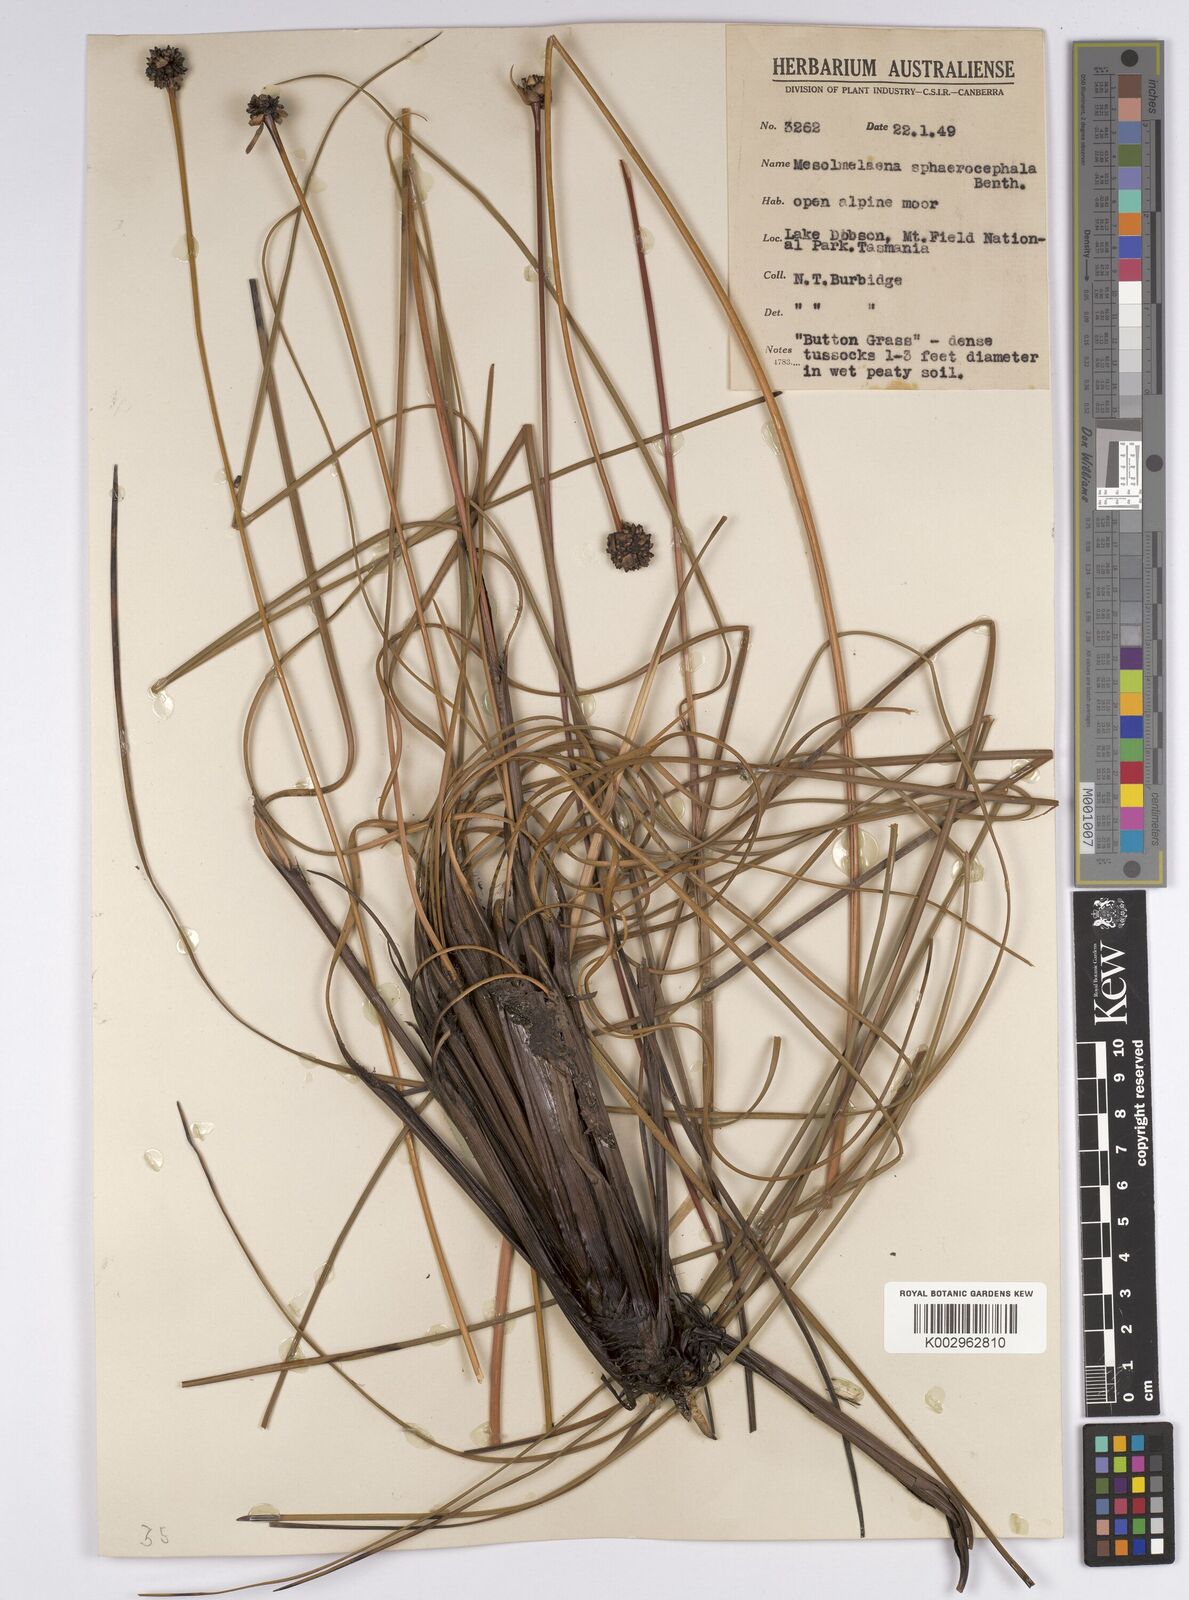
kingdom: Plantae
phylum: Tracheophyta
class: Liliopsida
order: Poales
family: Cyperaceae
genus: Gymnoschoenus
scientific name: Gymnoschoenus sphaerocephalus
